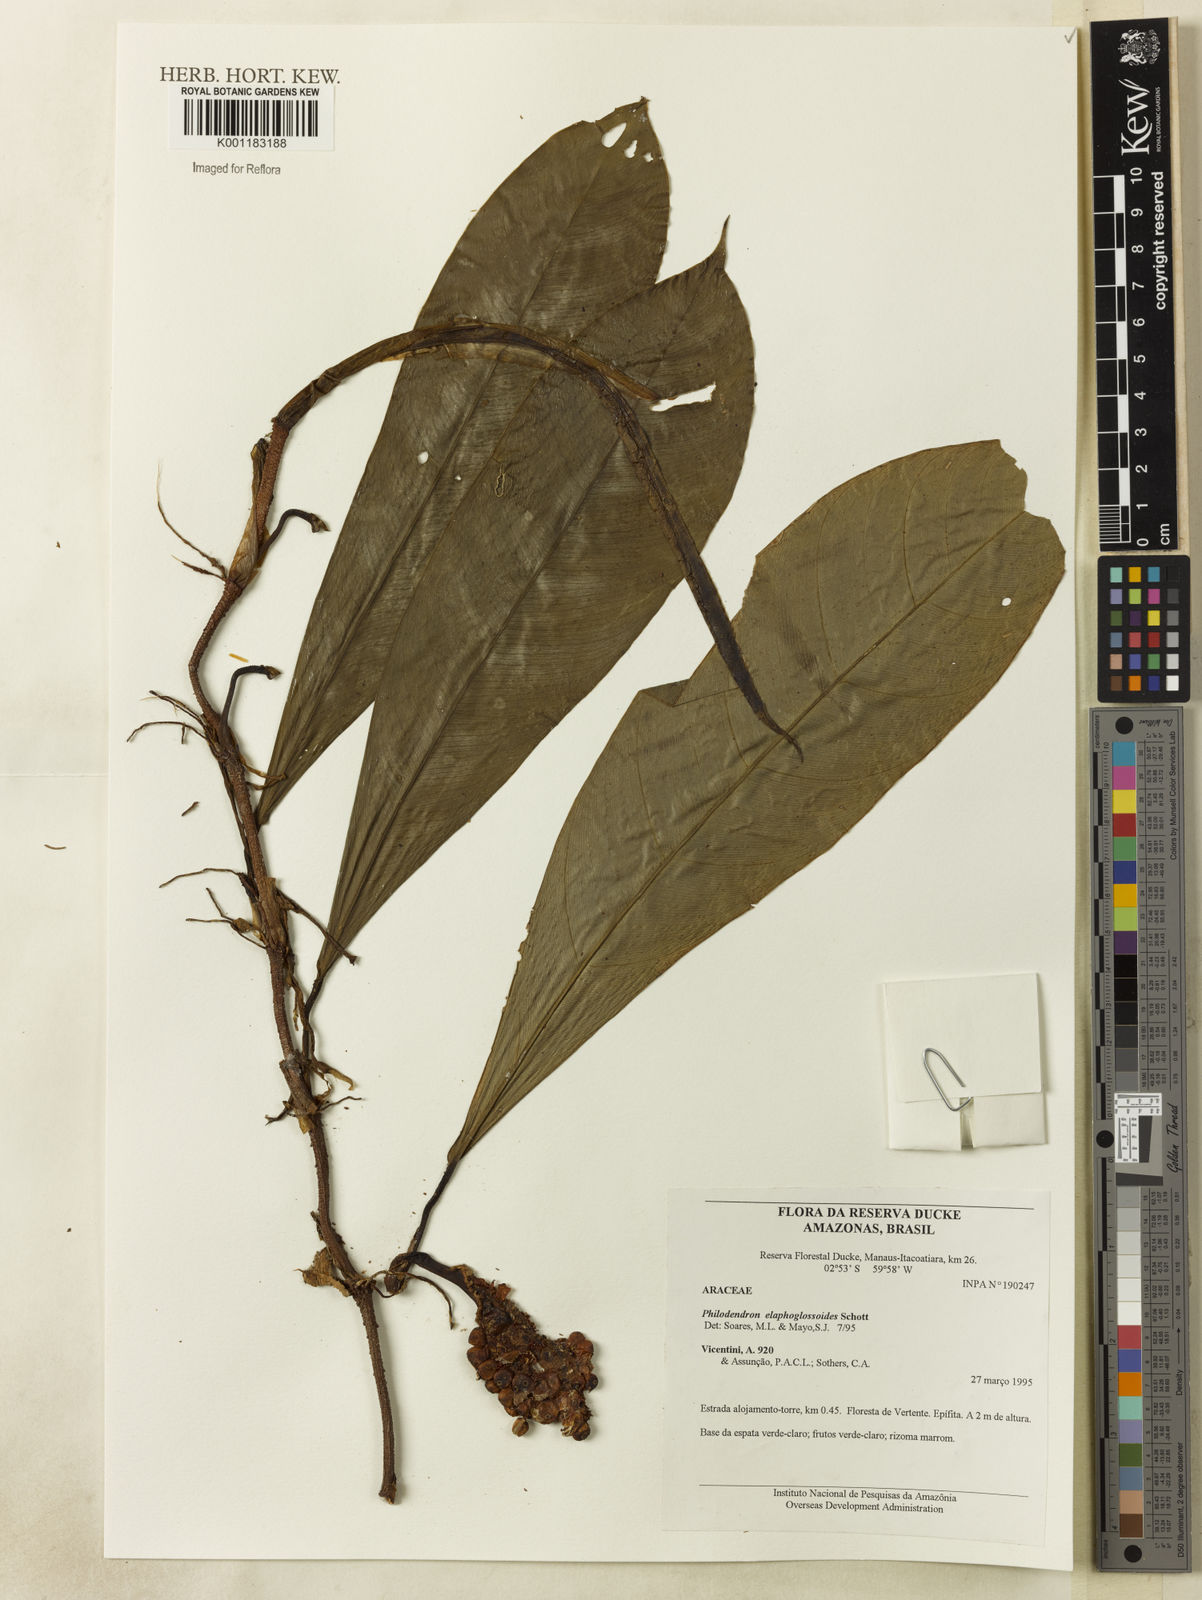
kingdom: Plantae
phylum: Tracheophyta
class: Liliopsida
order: Alismatales
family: Araceae
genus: Philodendron
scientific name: Philodendron elaphoglossoides
